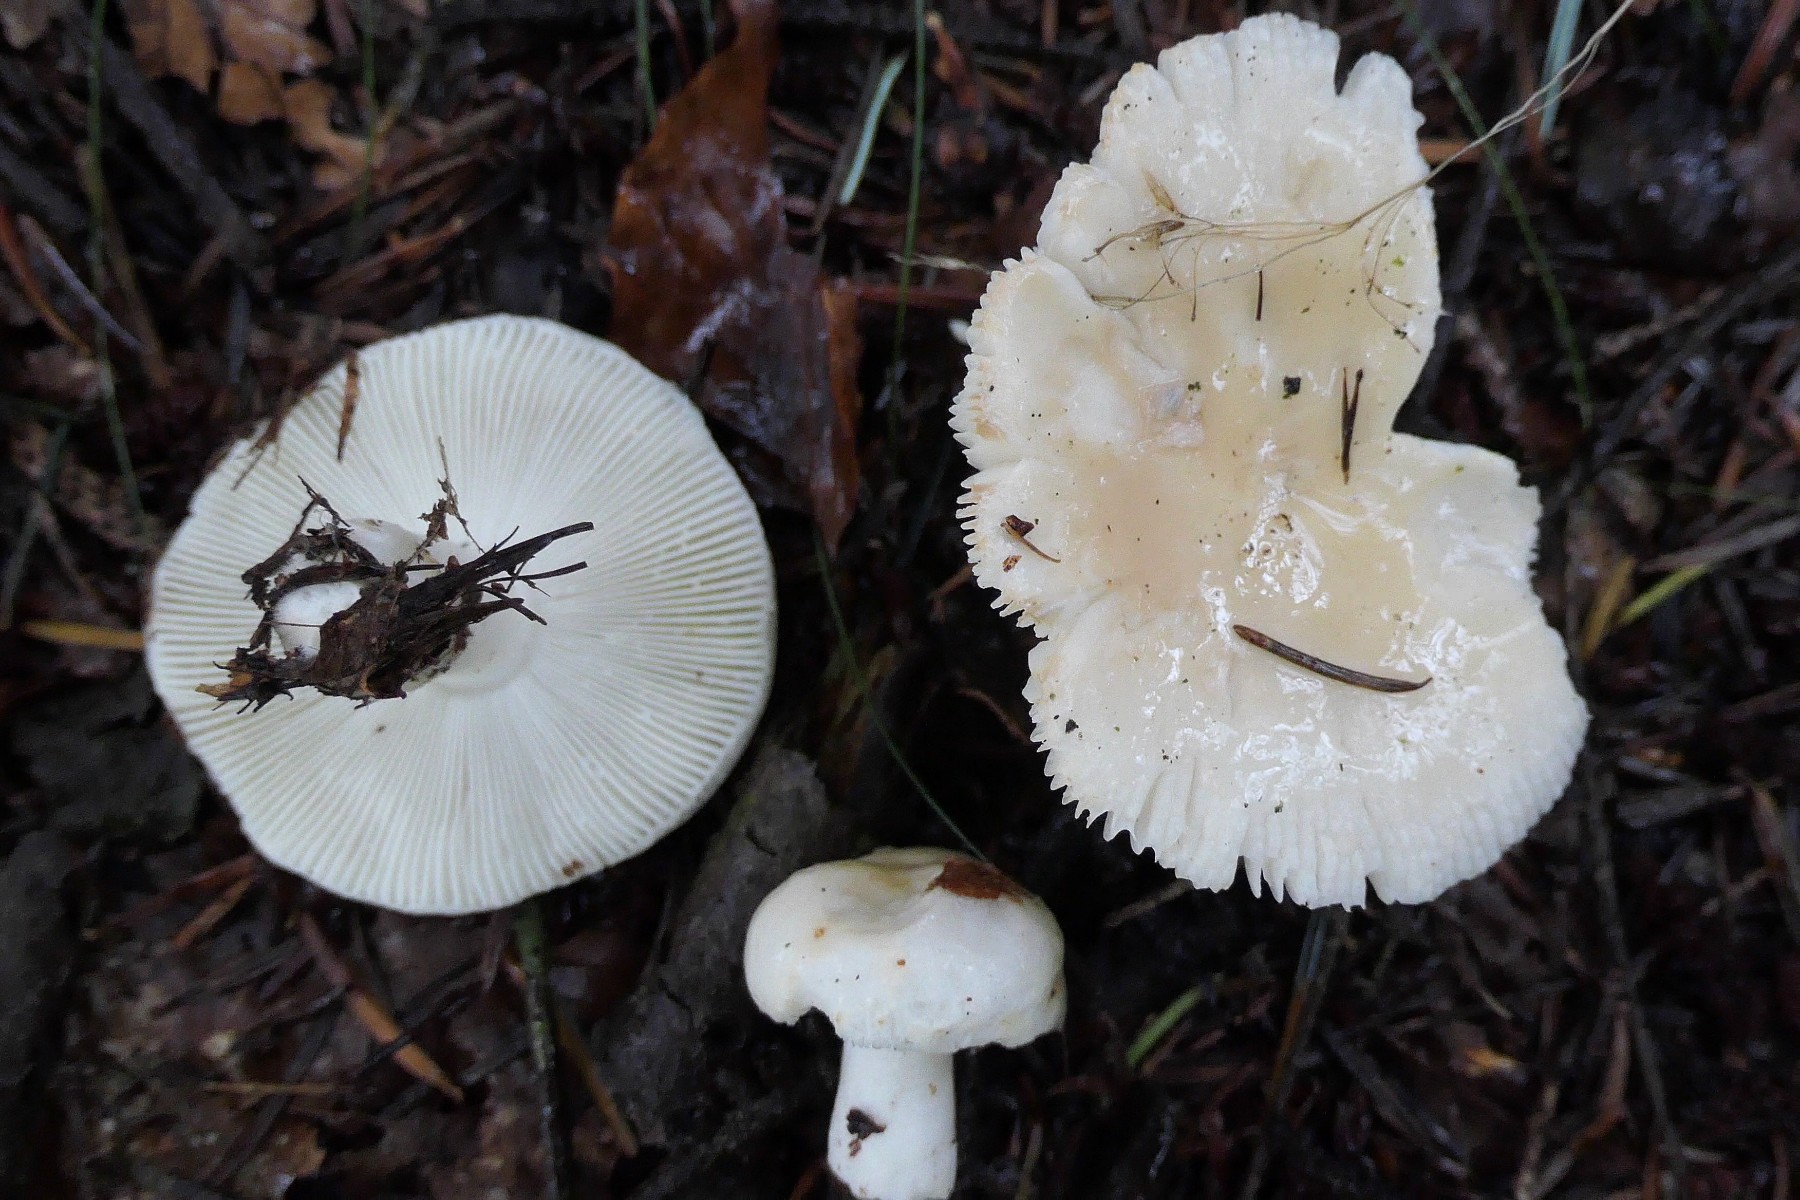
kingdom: Fungi
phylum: Basidiomycota
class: Agaricomycetes
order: Russulales
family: Russulaceae
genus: Russula
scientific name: Russula betularum
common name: bleg gift-skørhat
